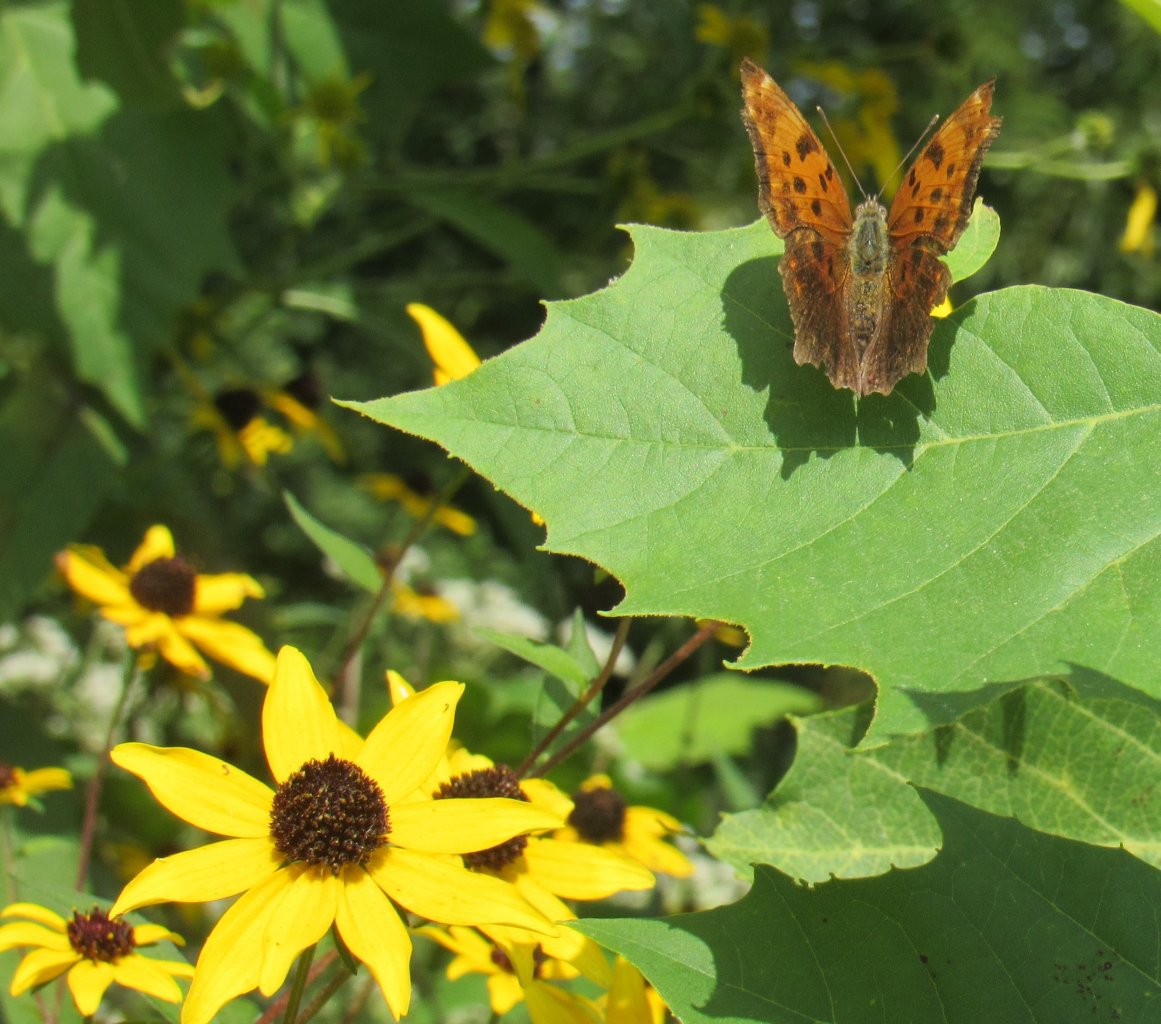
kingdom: Animalia
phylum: Arthropoda
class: Insecta
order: Lepidoptera
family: Nymphalidae
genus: Polygonia
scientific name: Polygonia comma
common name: Eastern Comma
